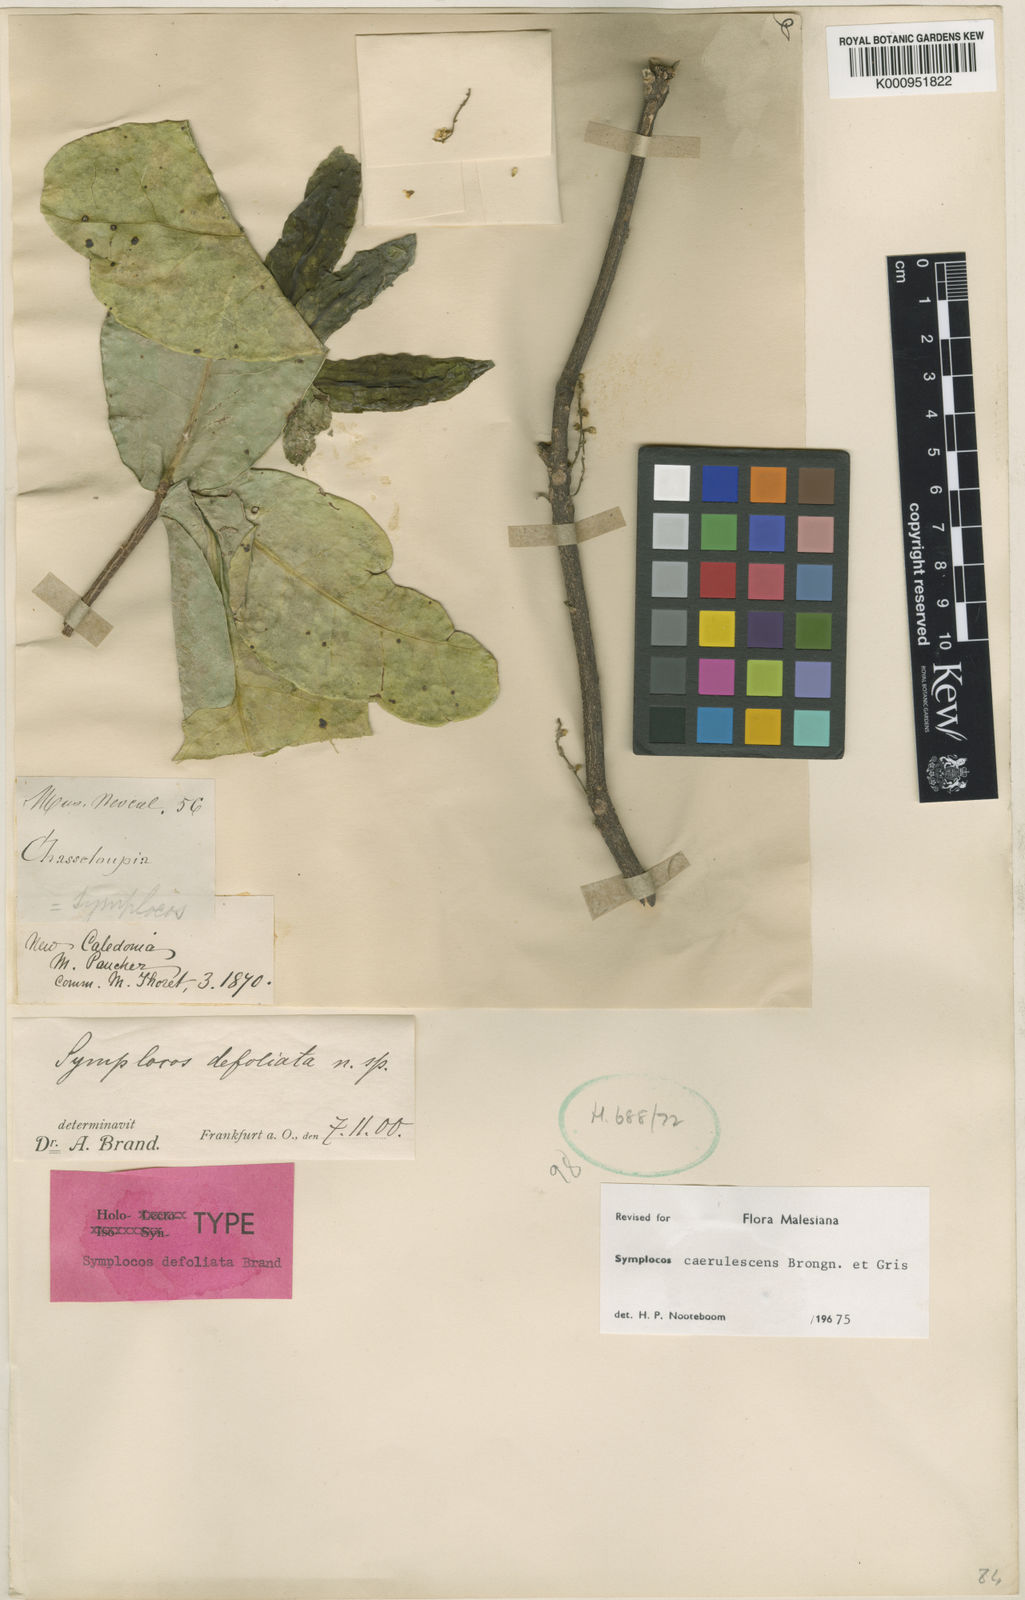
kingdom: Plantae
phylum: Tracheophyta
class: Magnoliopsida
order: Ericales
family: Symplocaceae
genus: Symplocos
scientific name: Symplocos caerulescens
